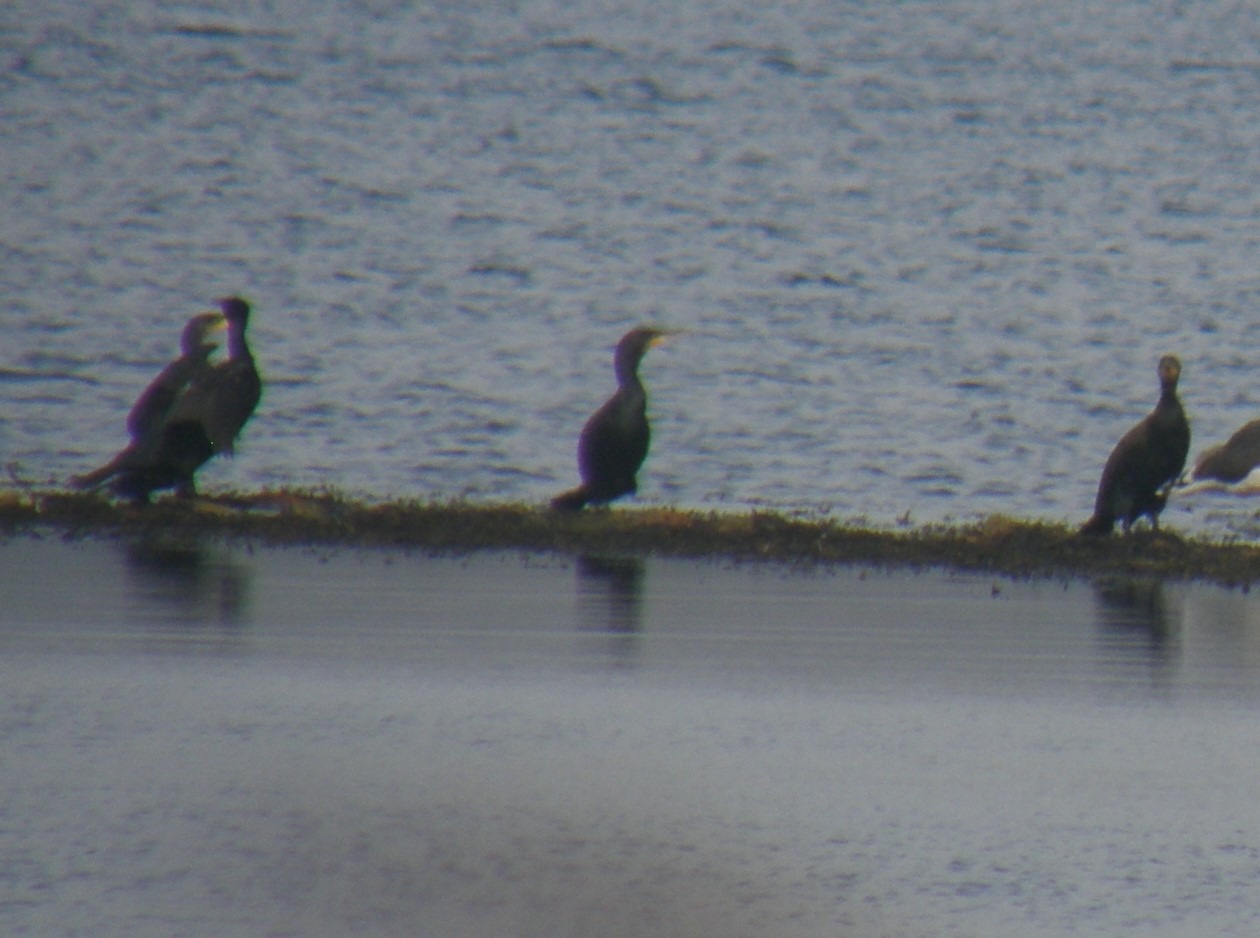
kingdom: Animalia
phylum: Chordata
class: Aves
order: Suliformes
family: Phalacrocoracidae
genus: Phalacrocorax
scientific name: Phalacrocorax carbo
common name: Skarv
